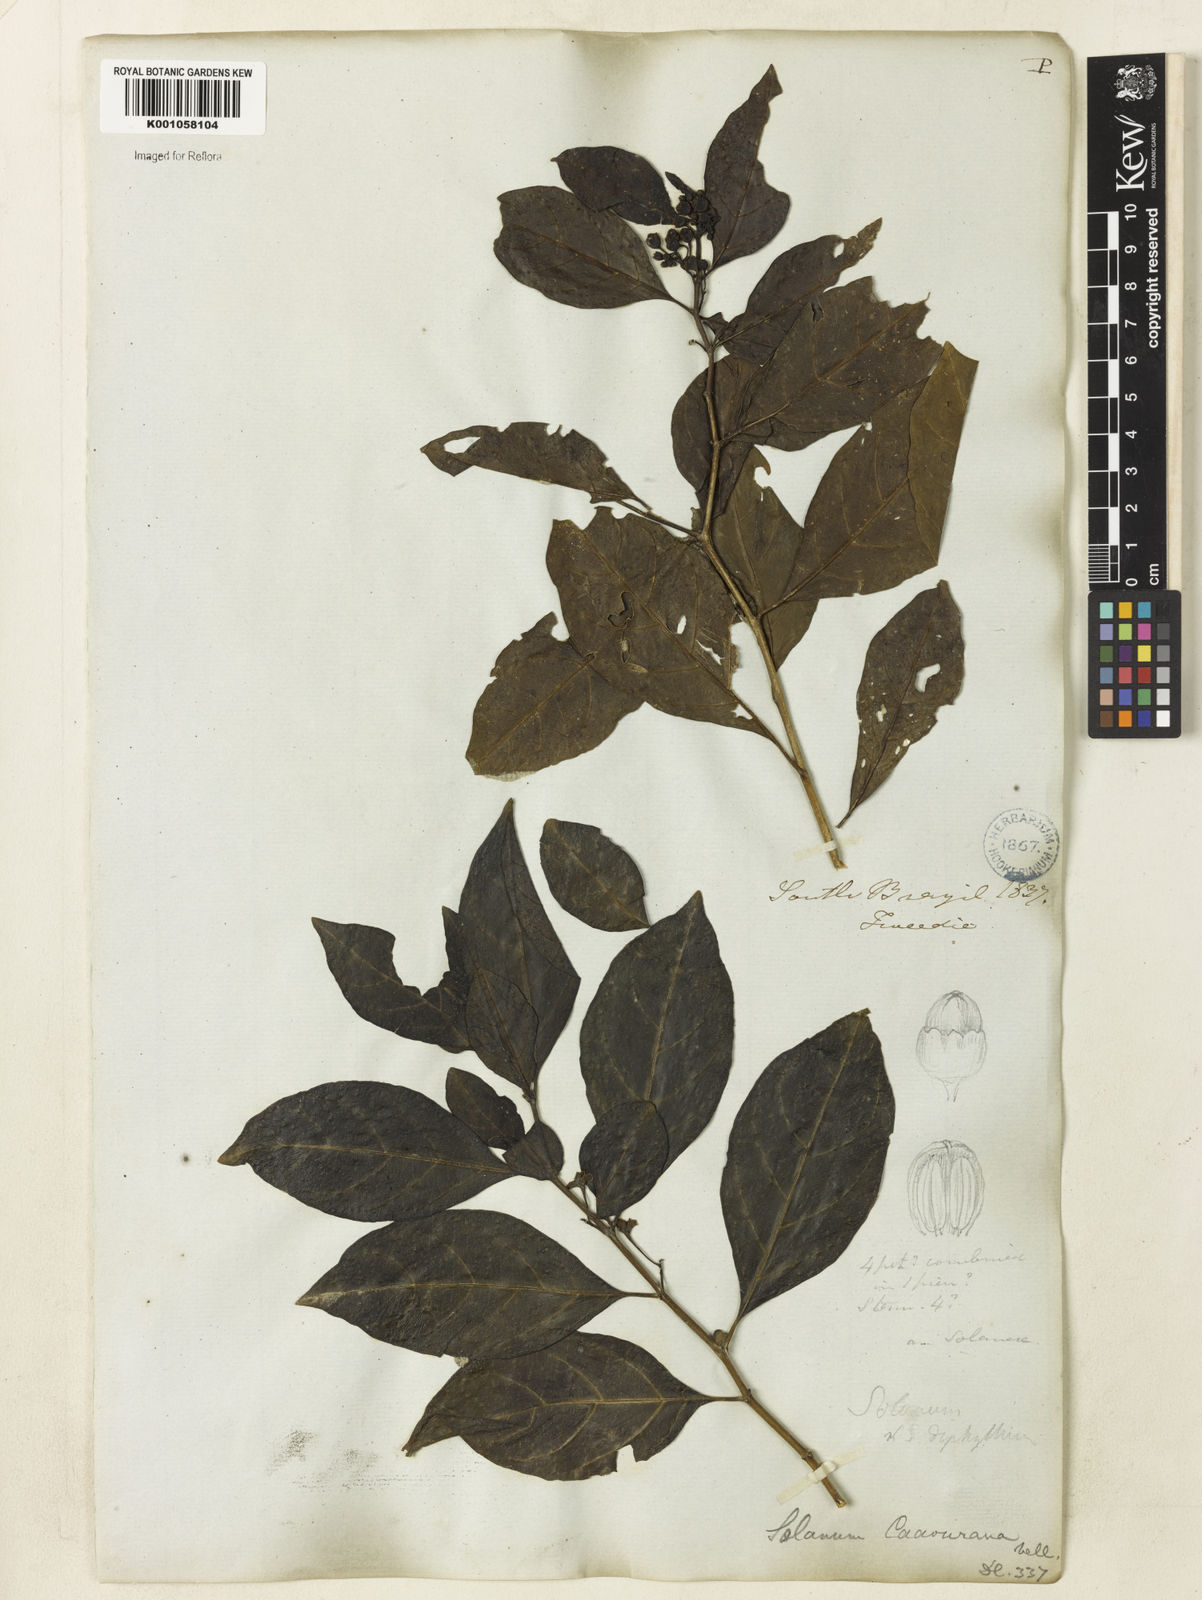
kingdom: Plantae
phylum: Tracheophyta
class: Magnoliopsida
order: Solanales
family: Solanaceae
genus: Solanum
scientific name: Solanum caavurana
